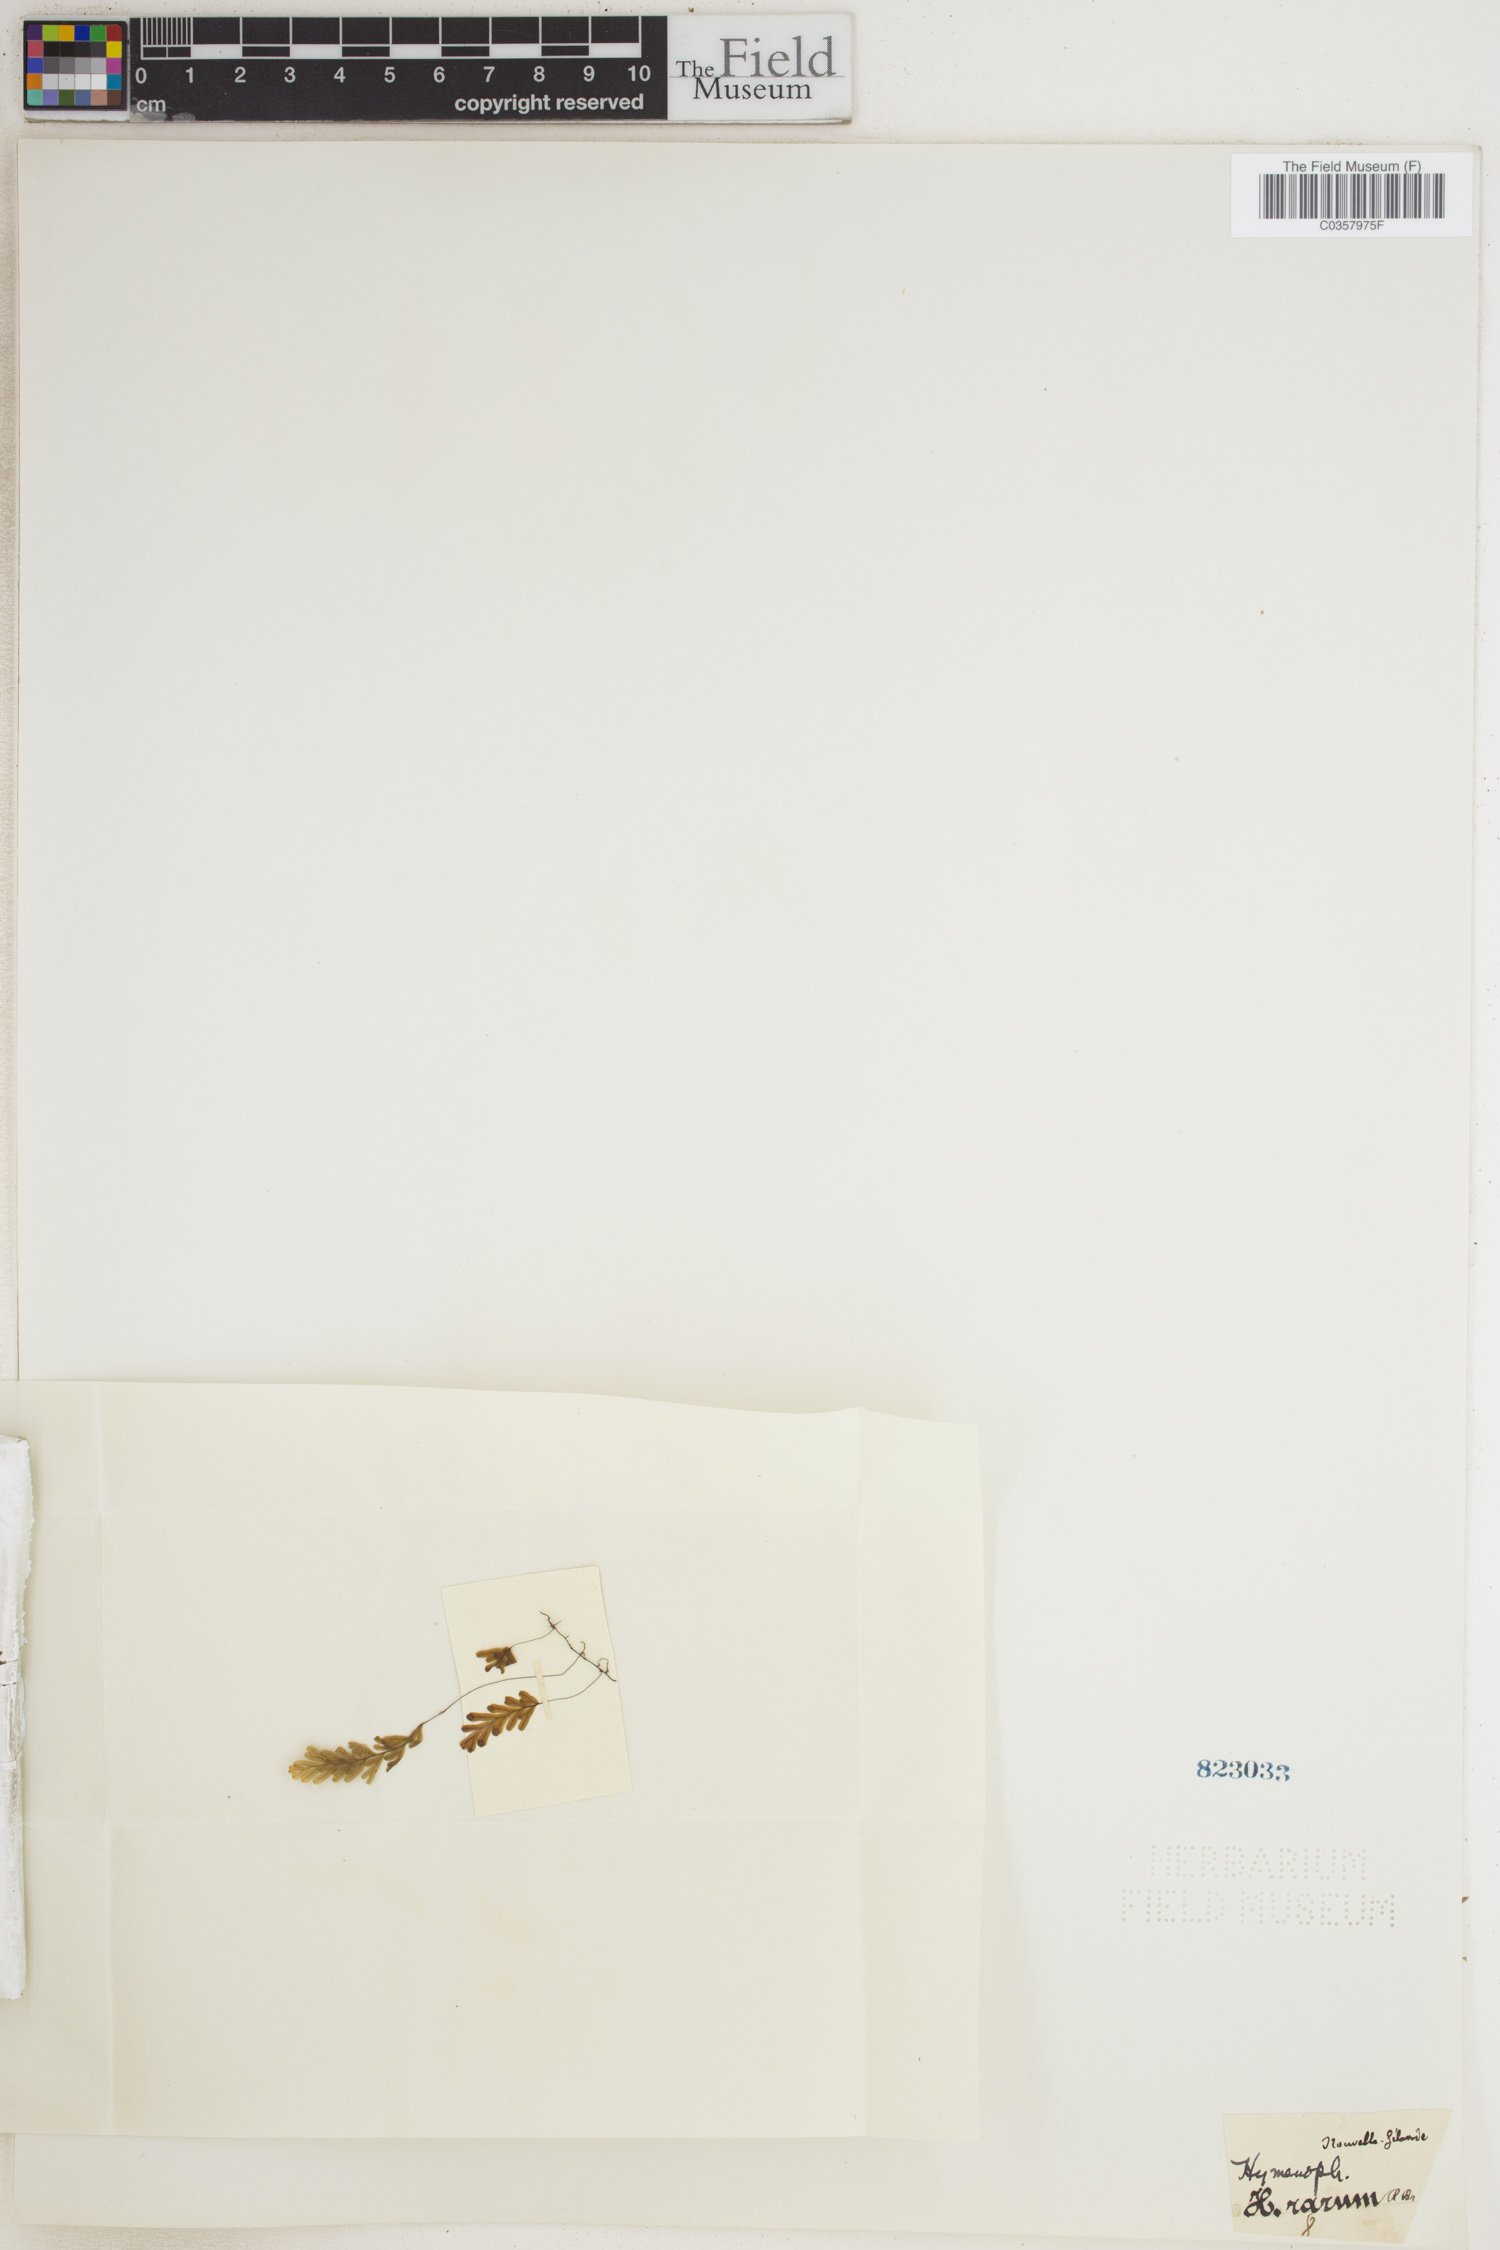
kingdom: Plantae
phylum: Tracheophyta
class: Polypodiopsida
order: Hymenophyllales
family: Hymenophyllaceae
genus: Hymenophyllum
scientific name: Hymenophyllum rarum
